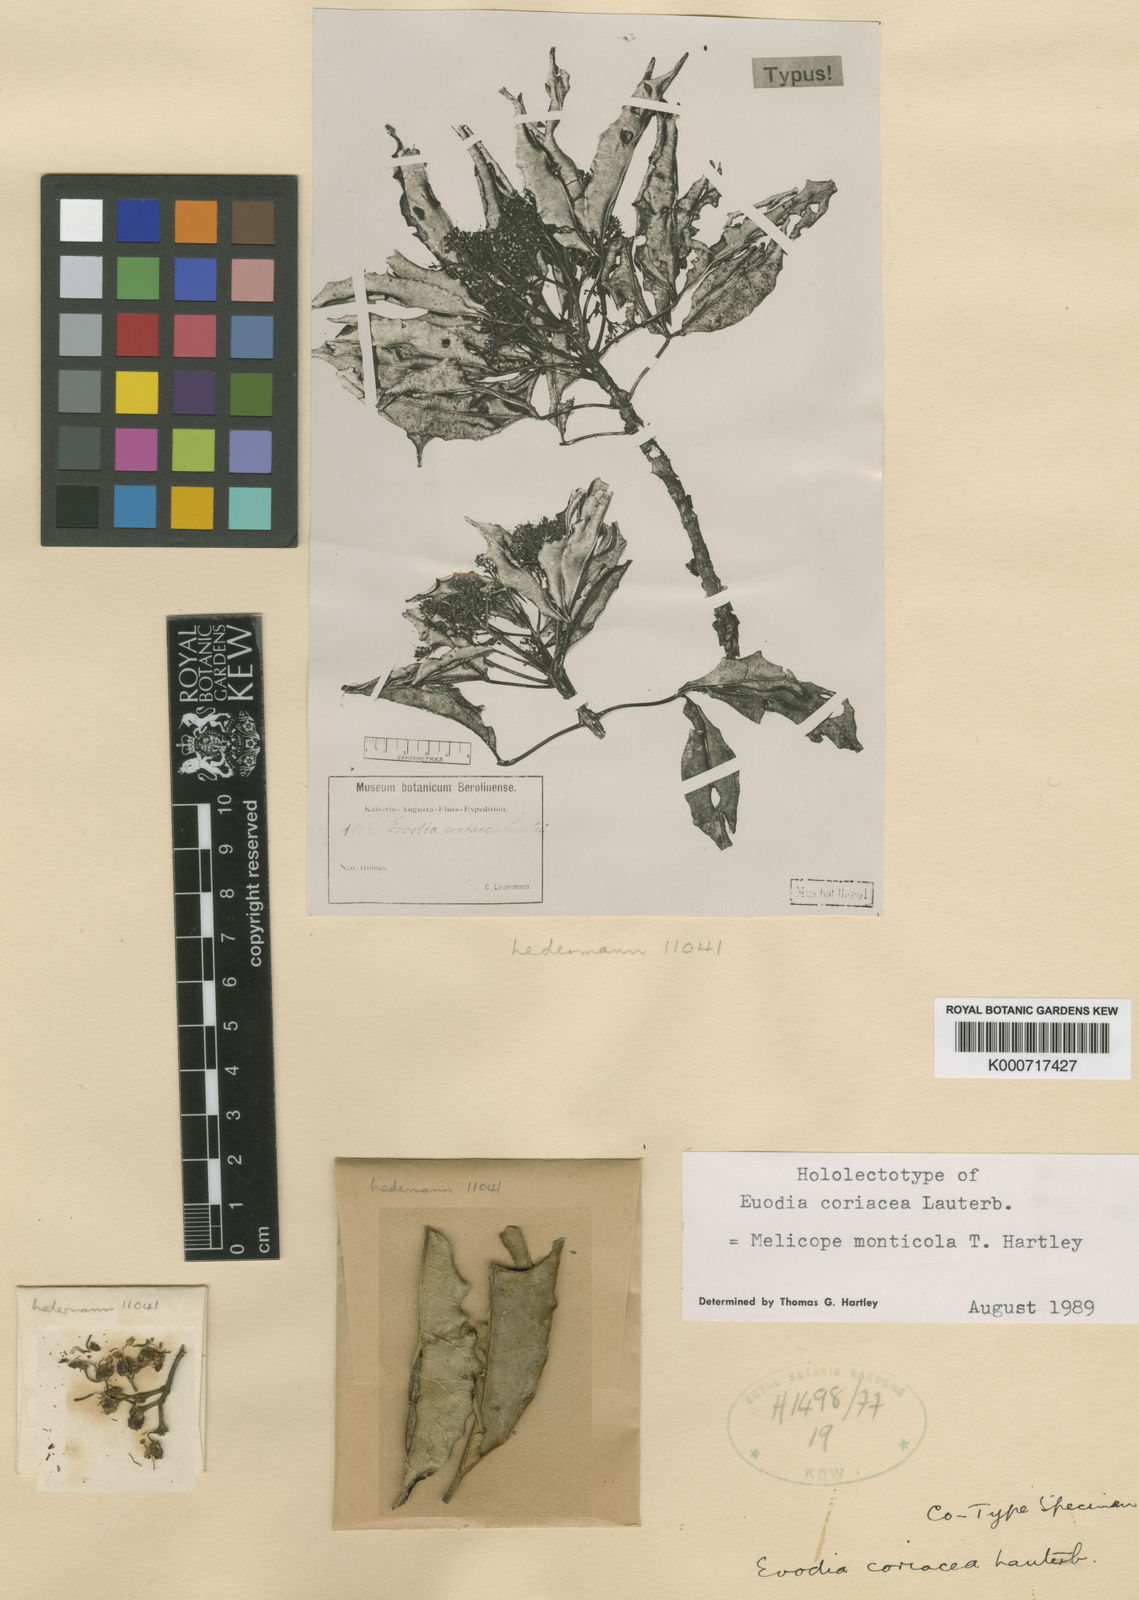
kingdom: Plantae
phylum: Tracheophyta
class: Magnoliopsida
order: Sapindales
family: Rutaceae
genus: Melicope
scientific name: Melicope monticola
